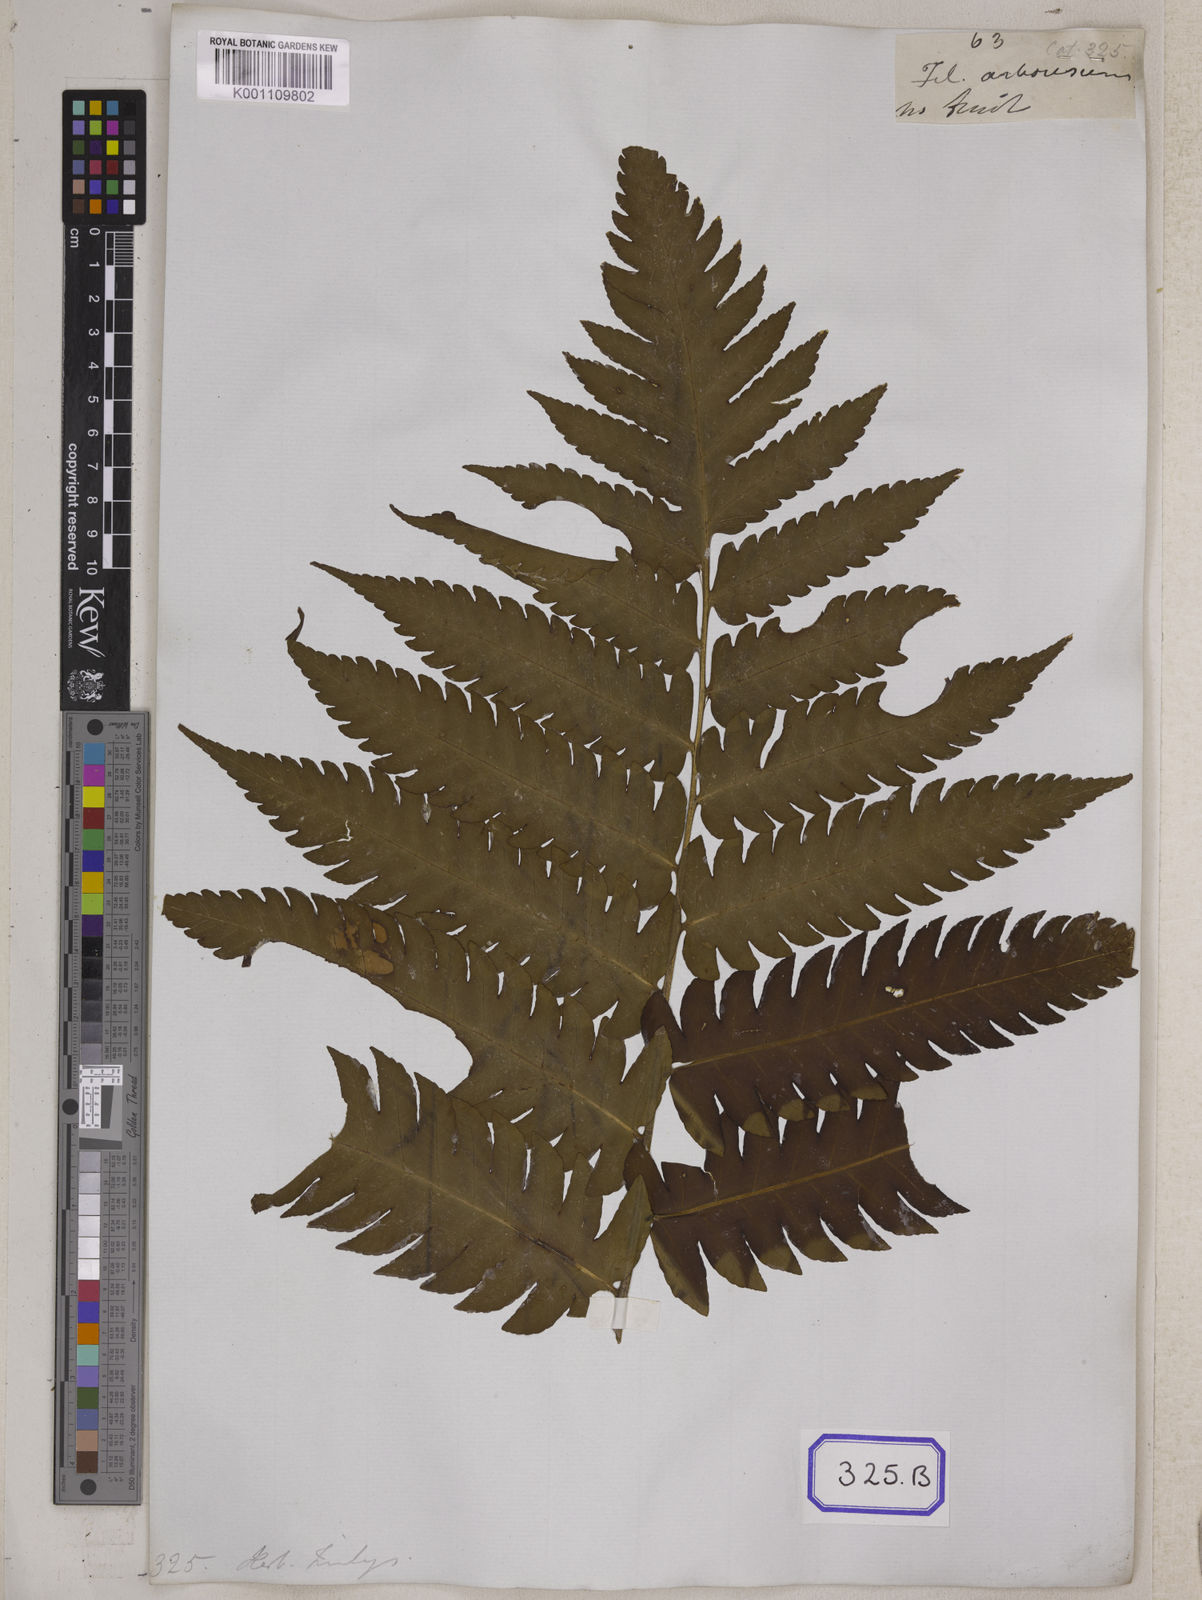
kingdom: Plantae
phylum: Tracheophyta
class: Polypodiopsida
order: Polypodiales
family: Dryopteridaceae
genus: Pleocnemia
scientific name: Pleocnemia irregularis
